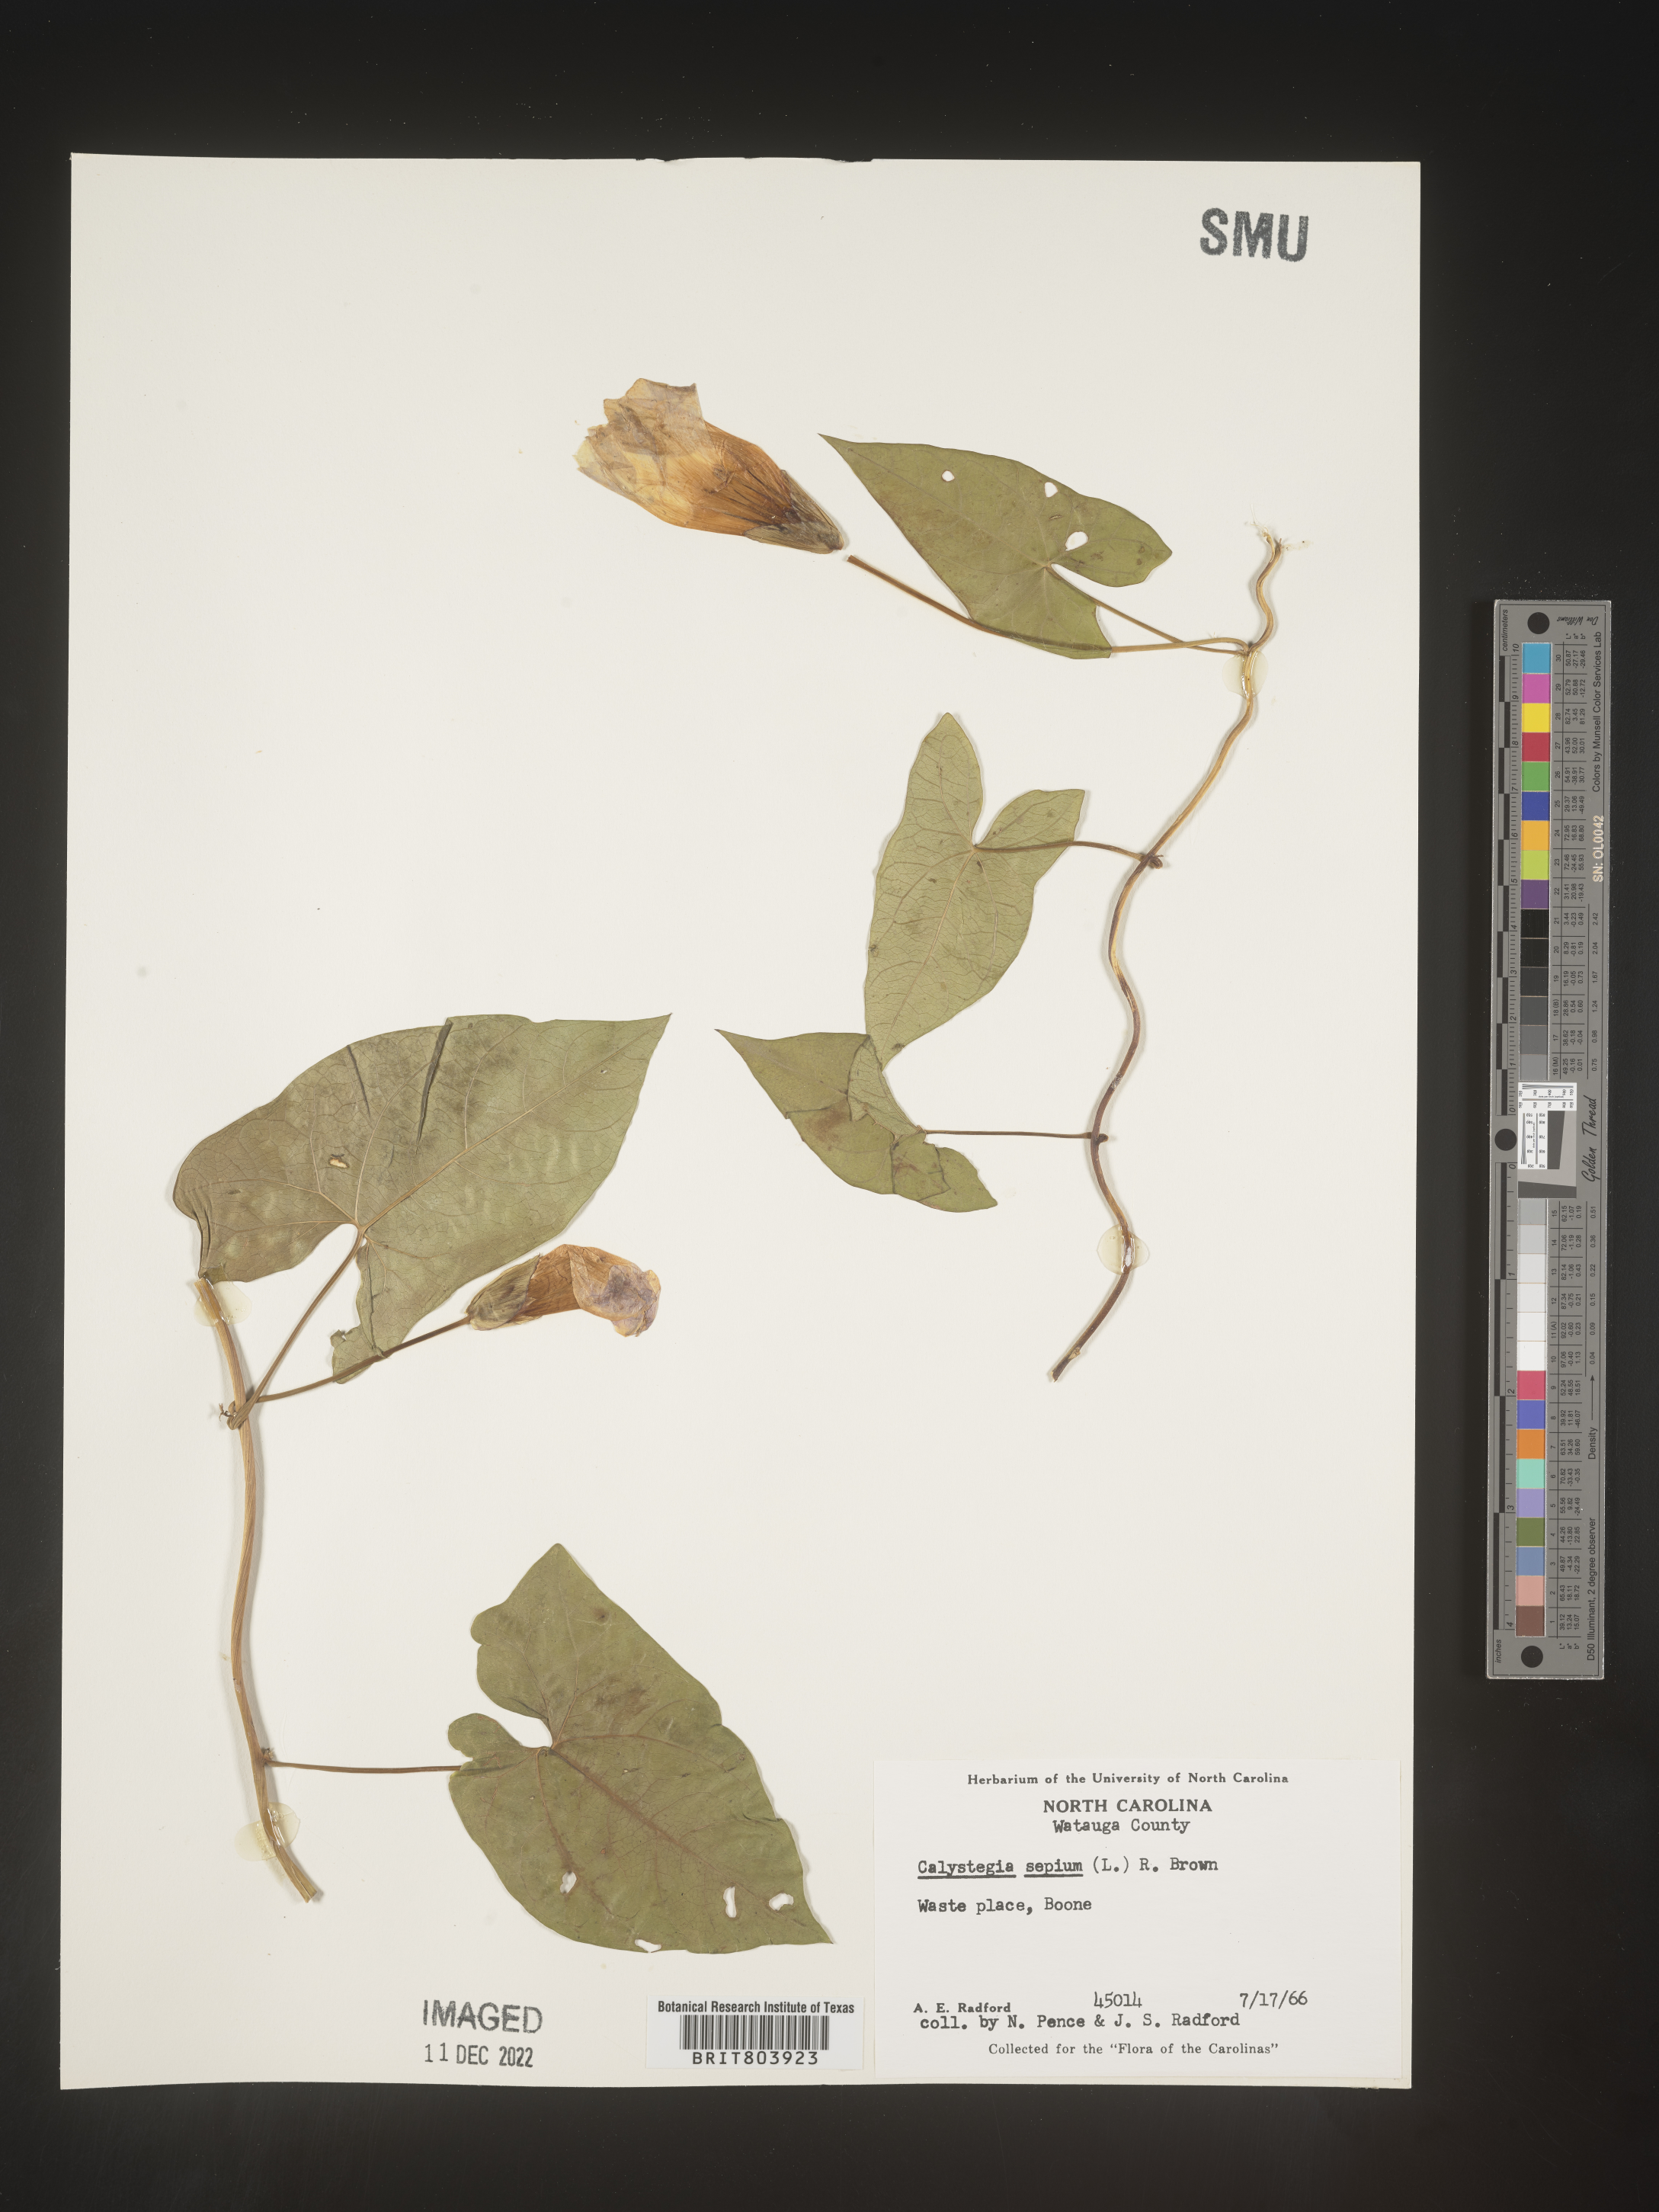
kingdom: Plantae
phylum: Tracheophyta
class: Magnoliopsida
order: Solanales
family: Convolvulaceae
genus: Calystegia
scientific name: Calystegia sepium
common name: Hedge bindweed
